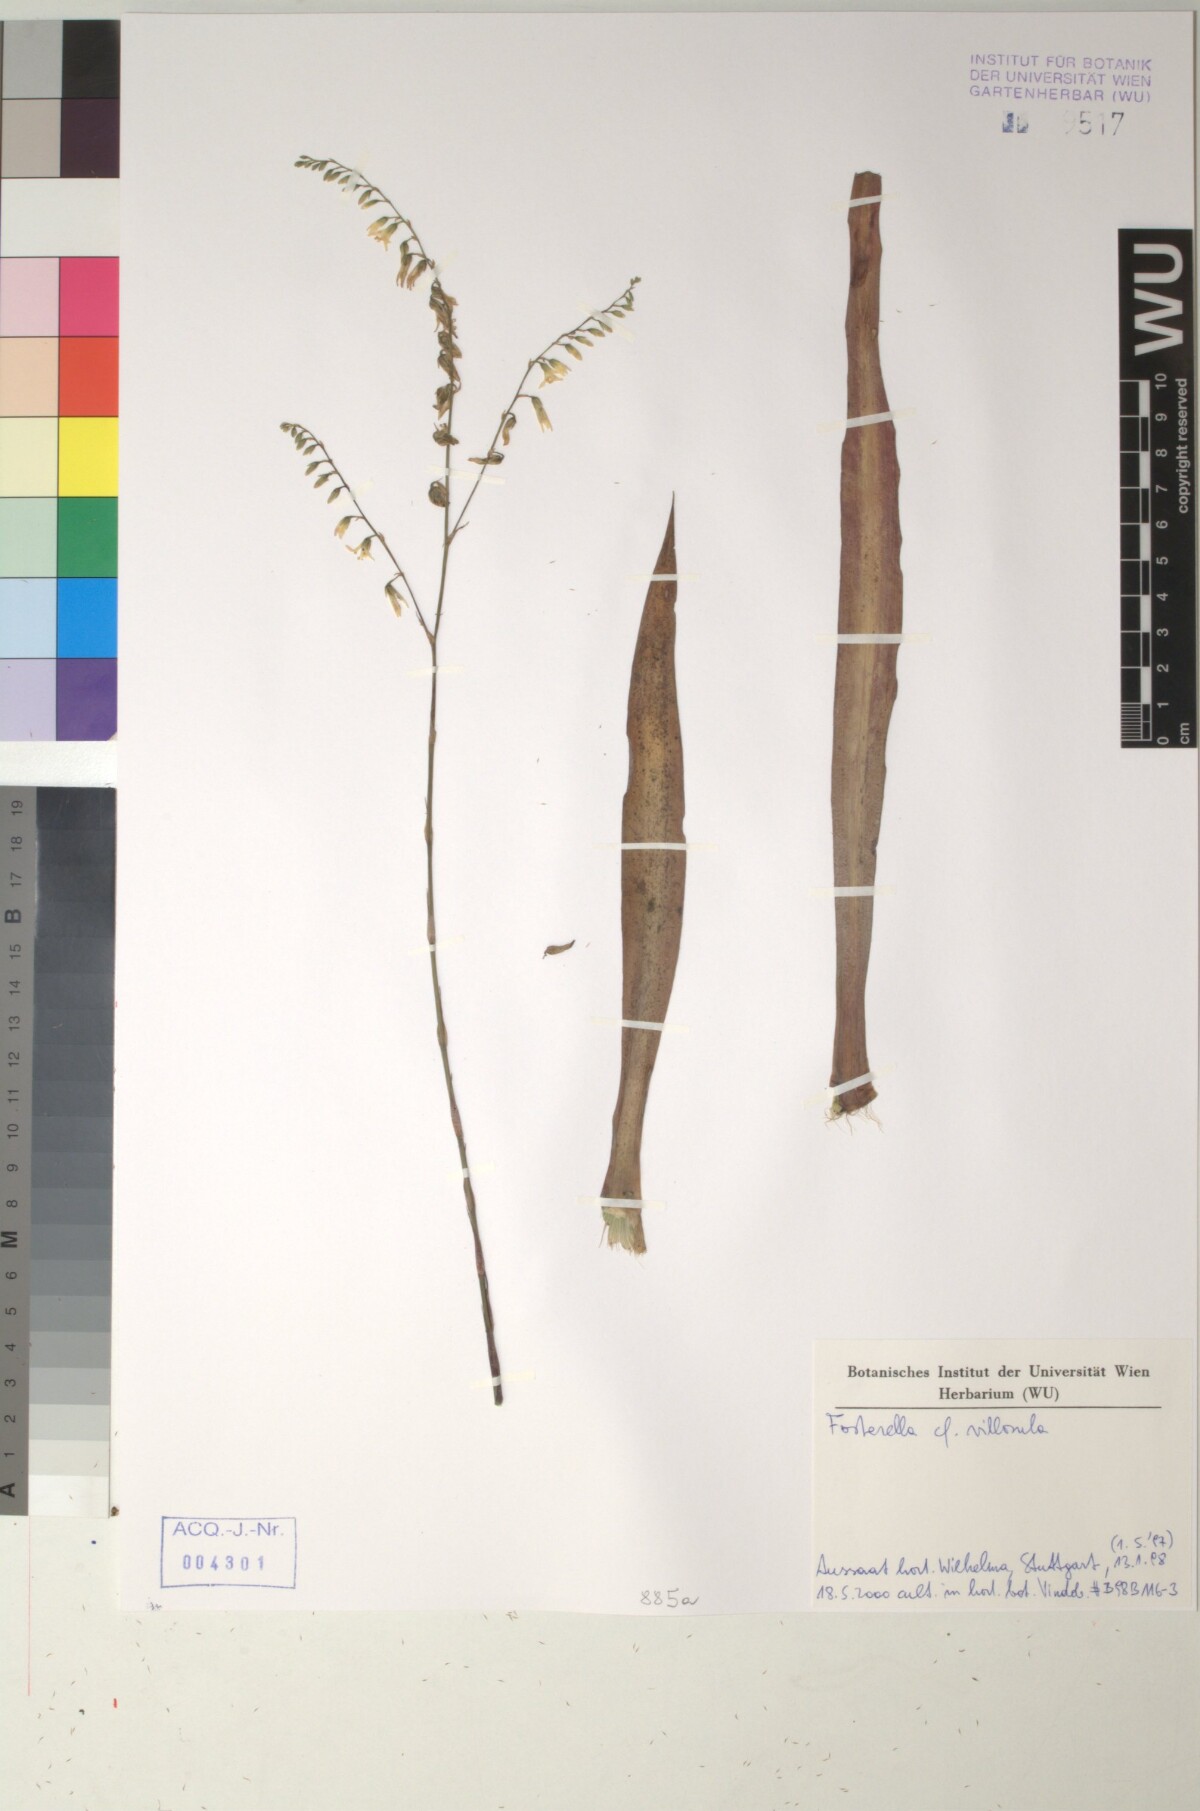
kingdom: Plantae
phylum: Tracheophyta
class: Liliopsida
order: Poales
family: Bromeliaceae
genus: Fosterella
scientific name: Fosterella penduliflora
